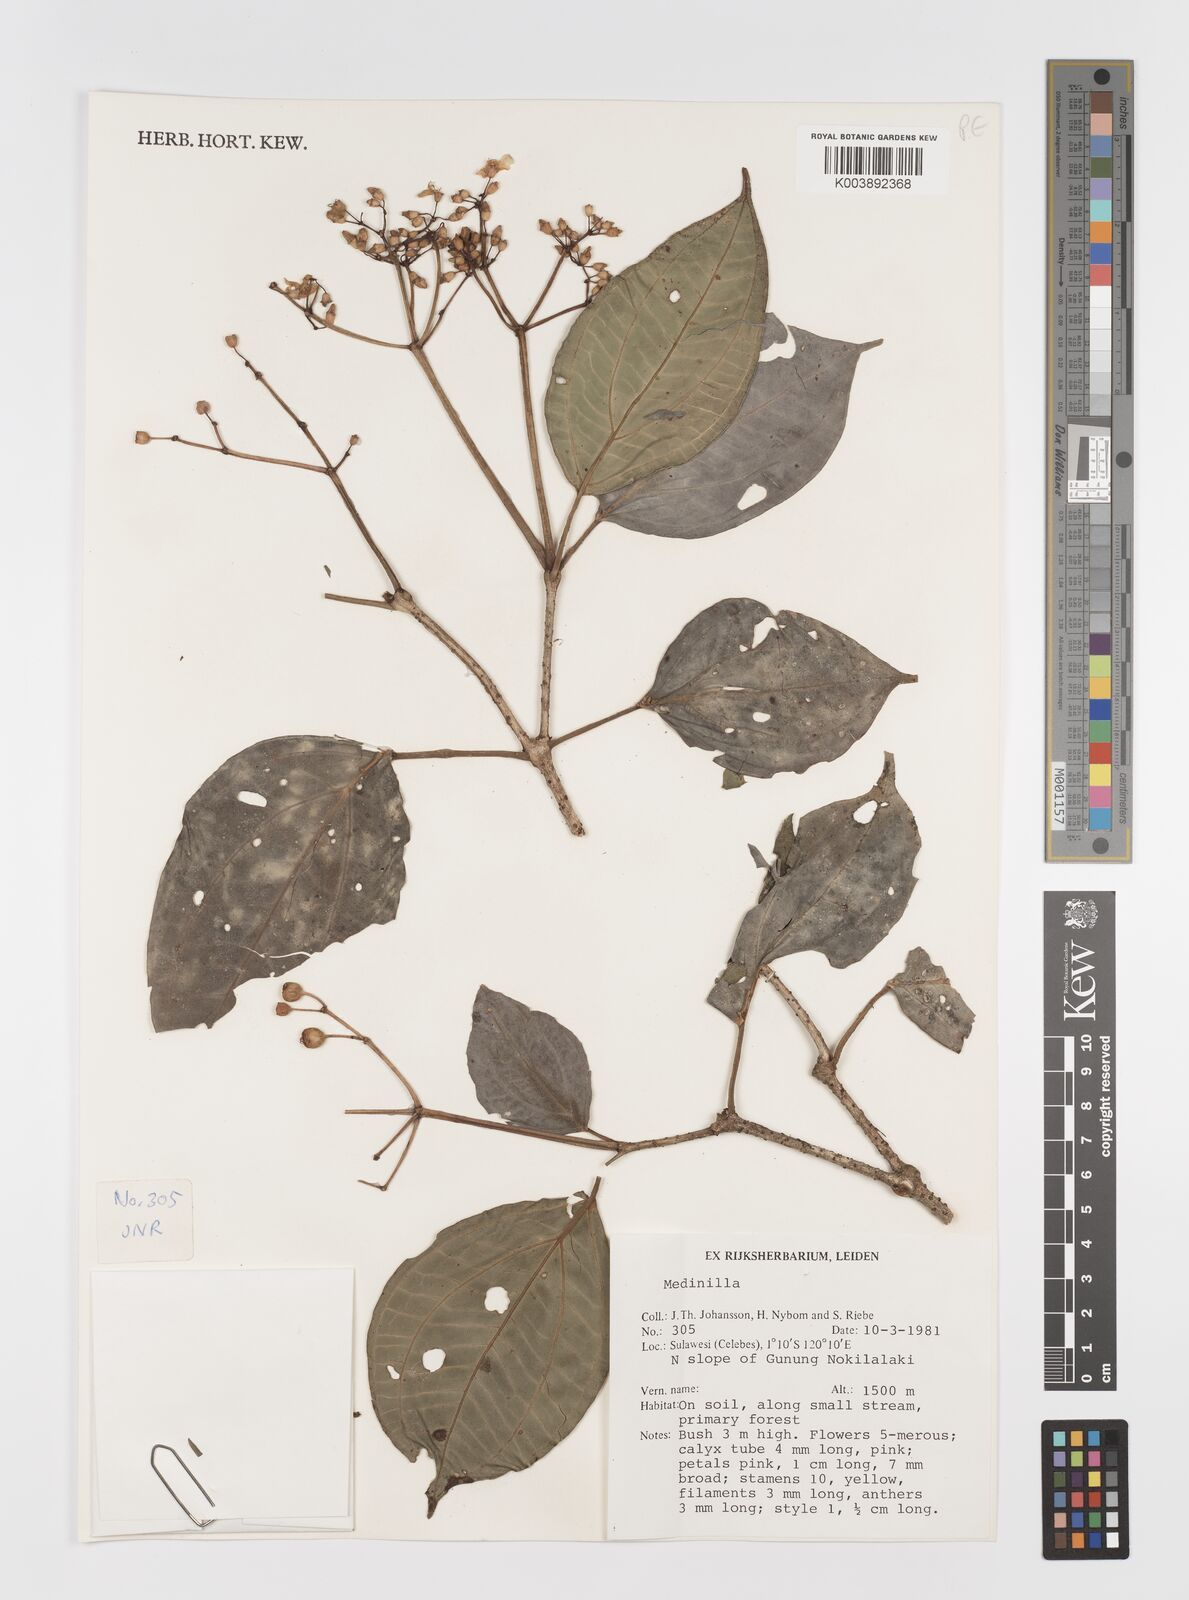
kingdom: Plantae
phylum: Tracheophyta
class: Magnoliopsida
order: Myrtales
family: Melastomataceae
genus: Medinilla
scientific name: Medinilla
